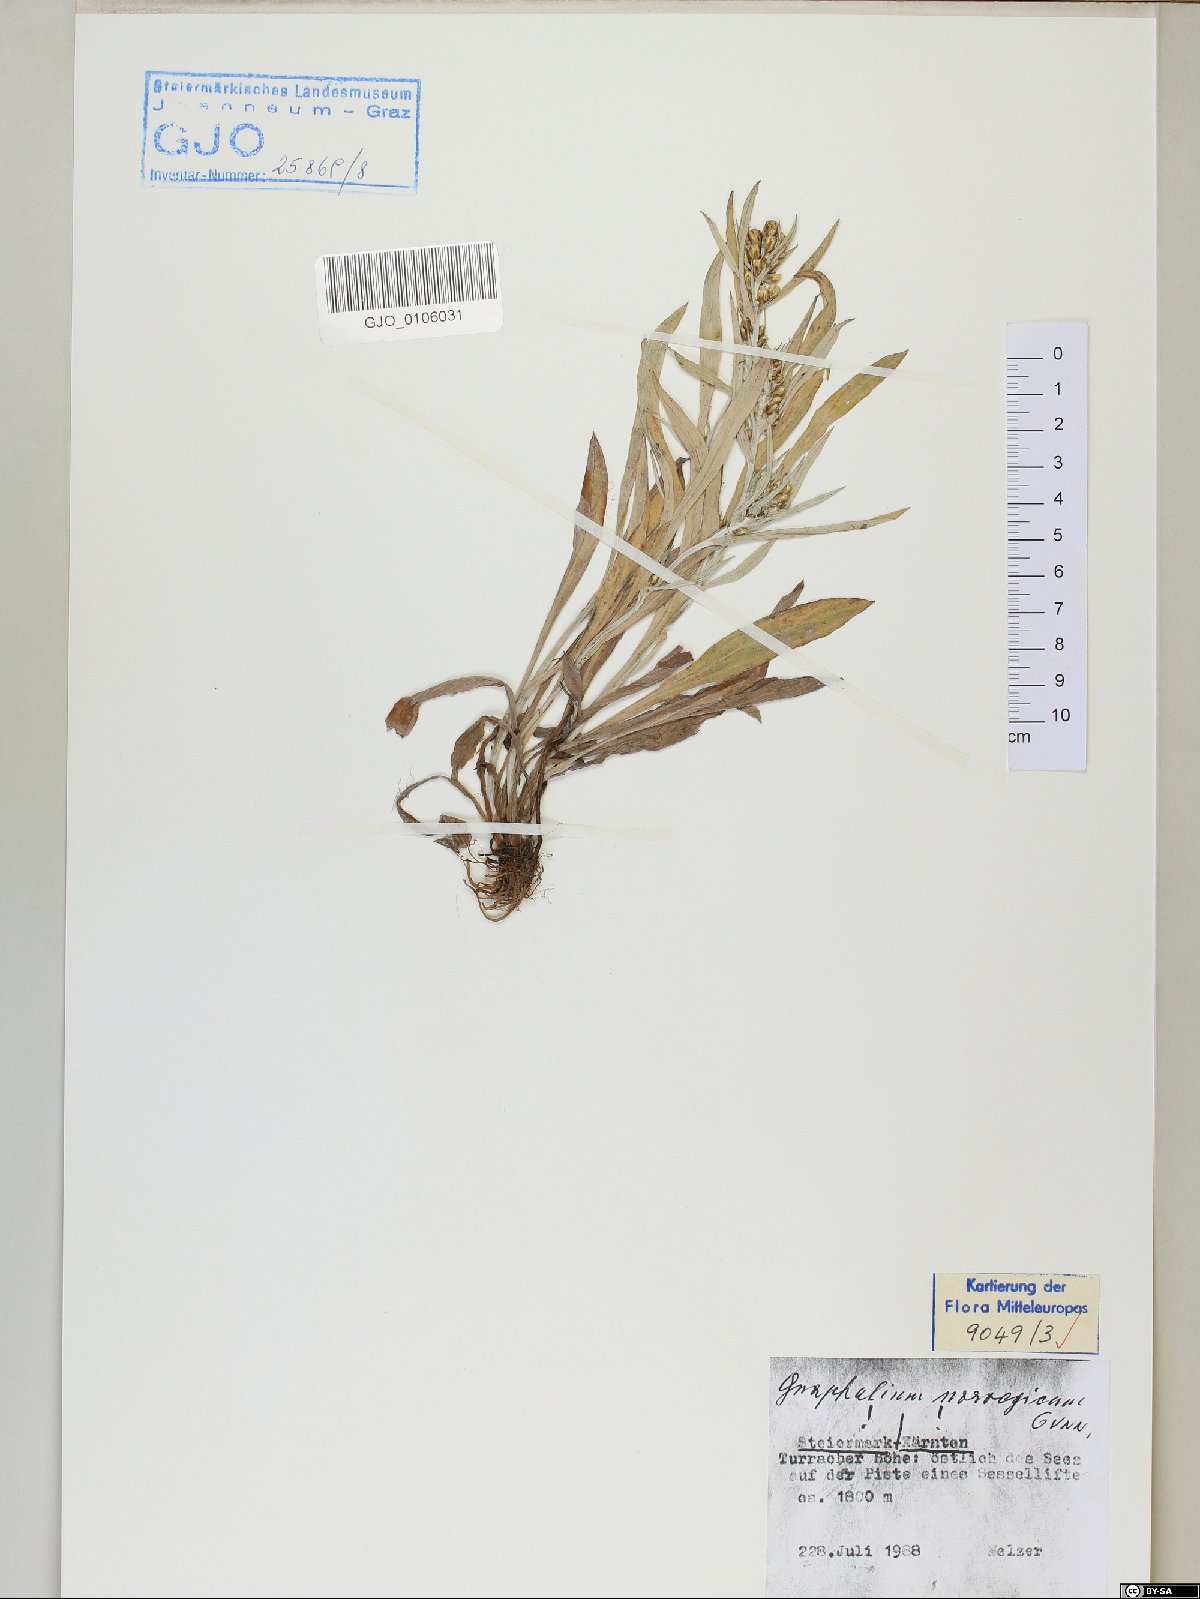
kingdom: Plantae
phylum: Tracheophyta
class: Magnoliopsida
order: Asterales
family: Asteraceae
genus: Omalotheca
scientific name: Omalotheca norvegica
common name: Norwegian arctic-cudweed
